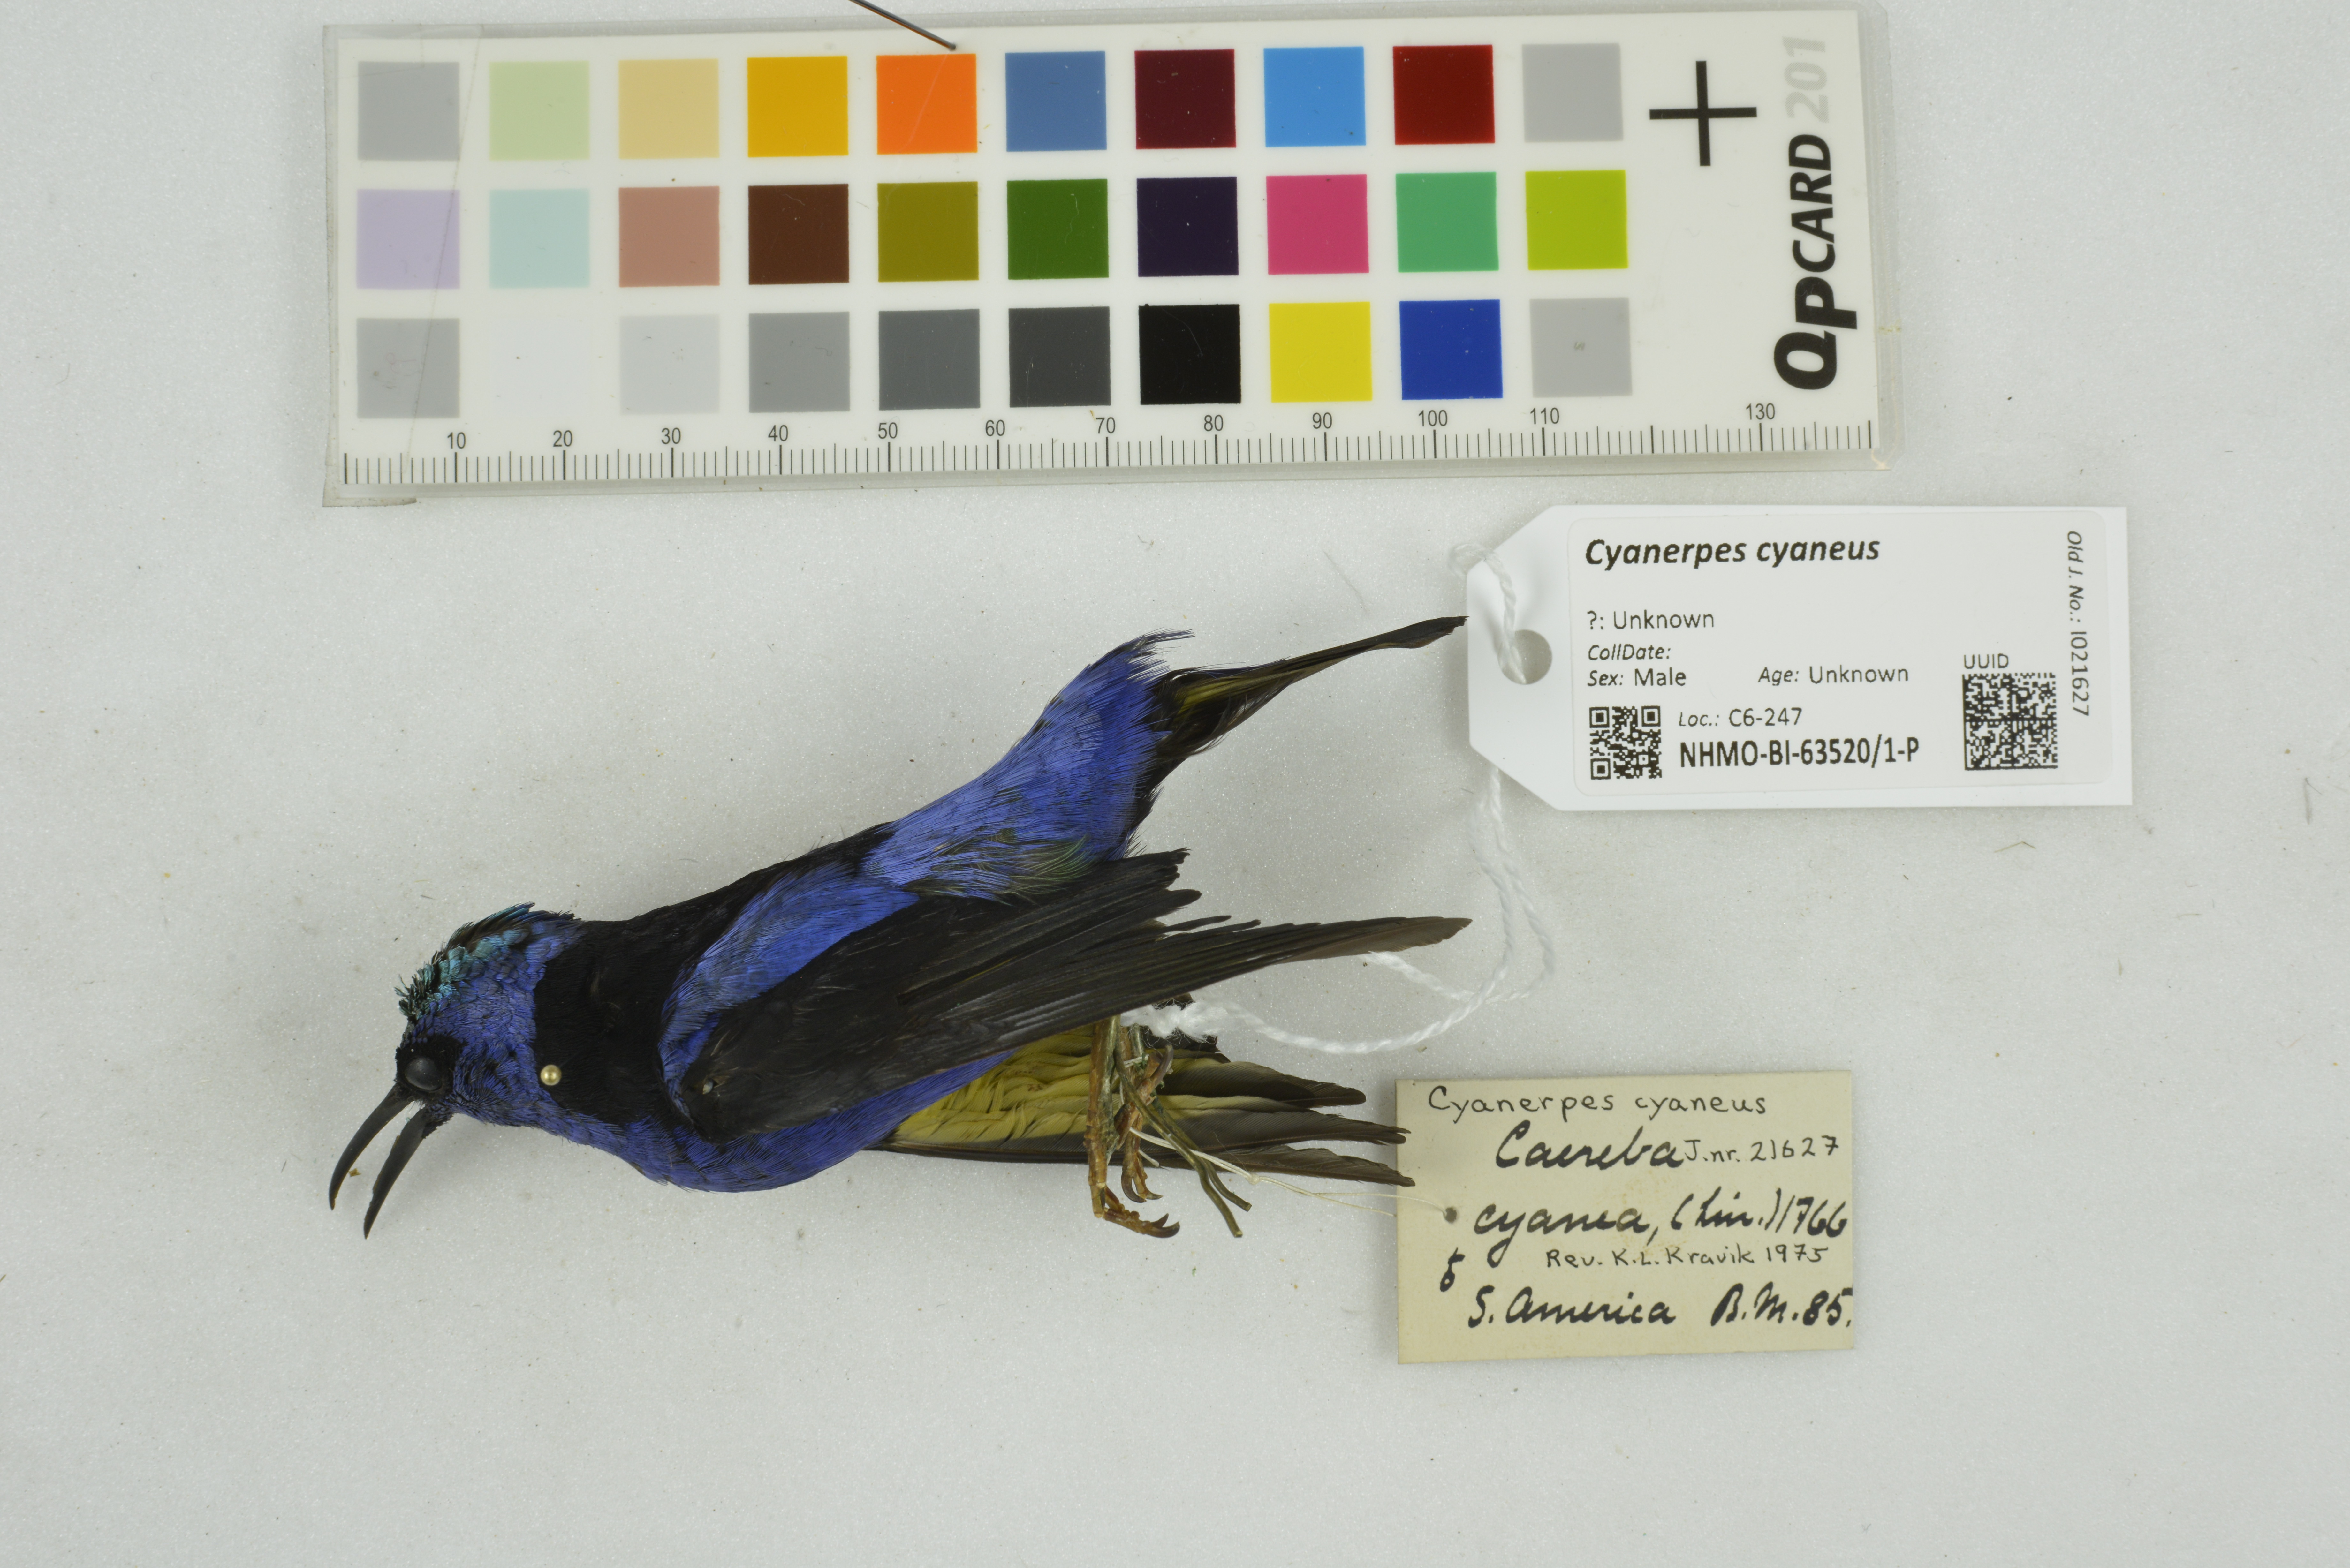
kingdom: Animalia
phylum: Chordata
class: Aves
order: Passeriformes
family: Thraupidae
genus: Cyanerpes
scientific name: Cyanerpes cyaneus
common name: Red-legged honeycreeper
